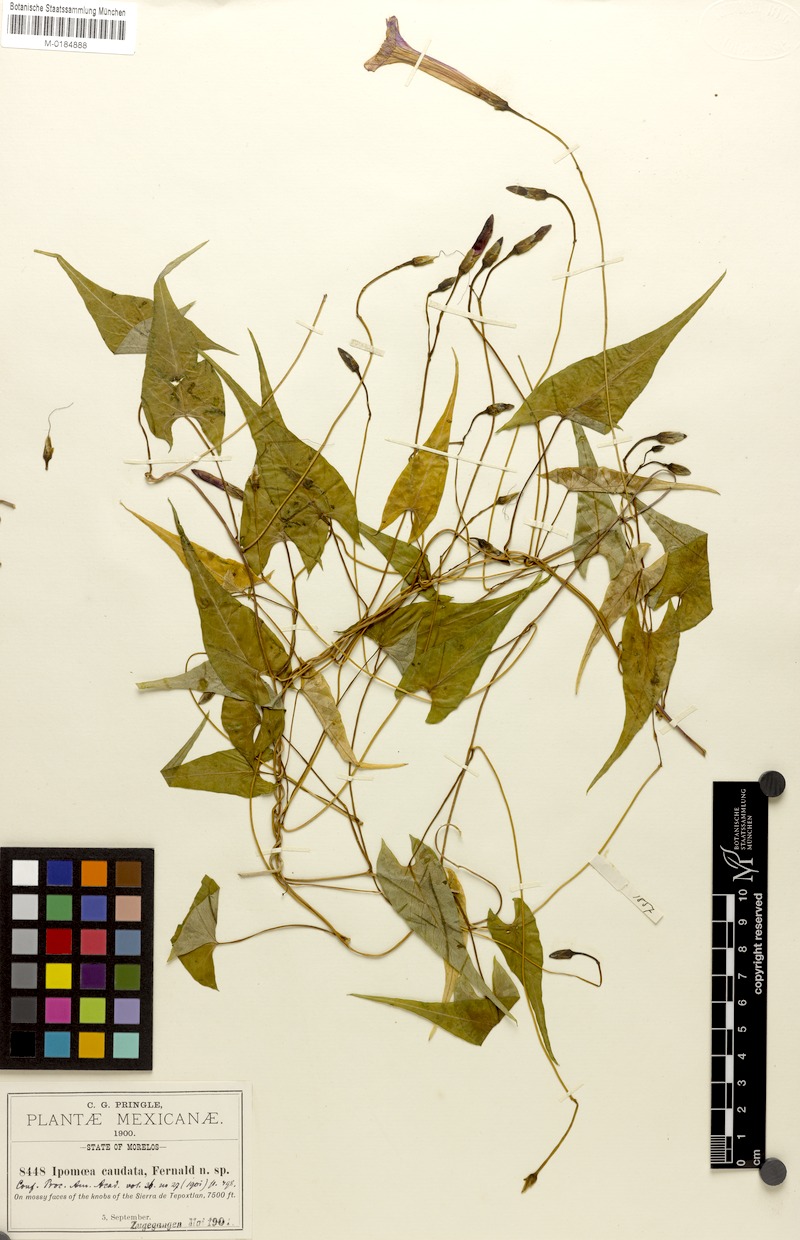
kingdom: Plantae
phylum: Tracheophyta
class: Magnoliopsida
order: Solanales
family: Convolvulaceae
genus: Ipomoea
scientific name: Ipomoea caudata
